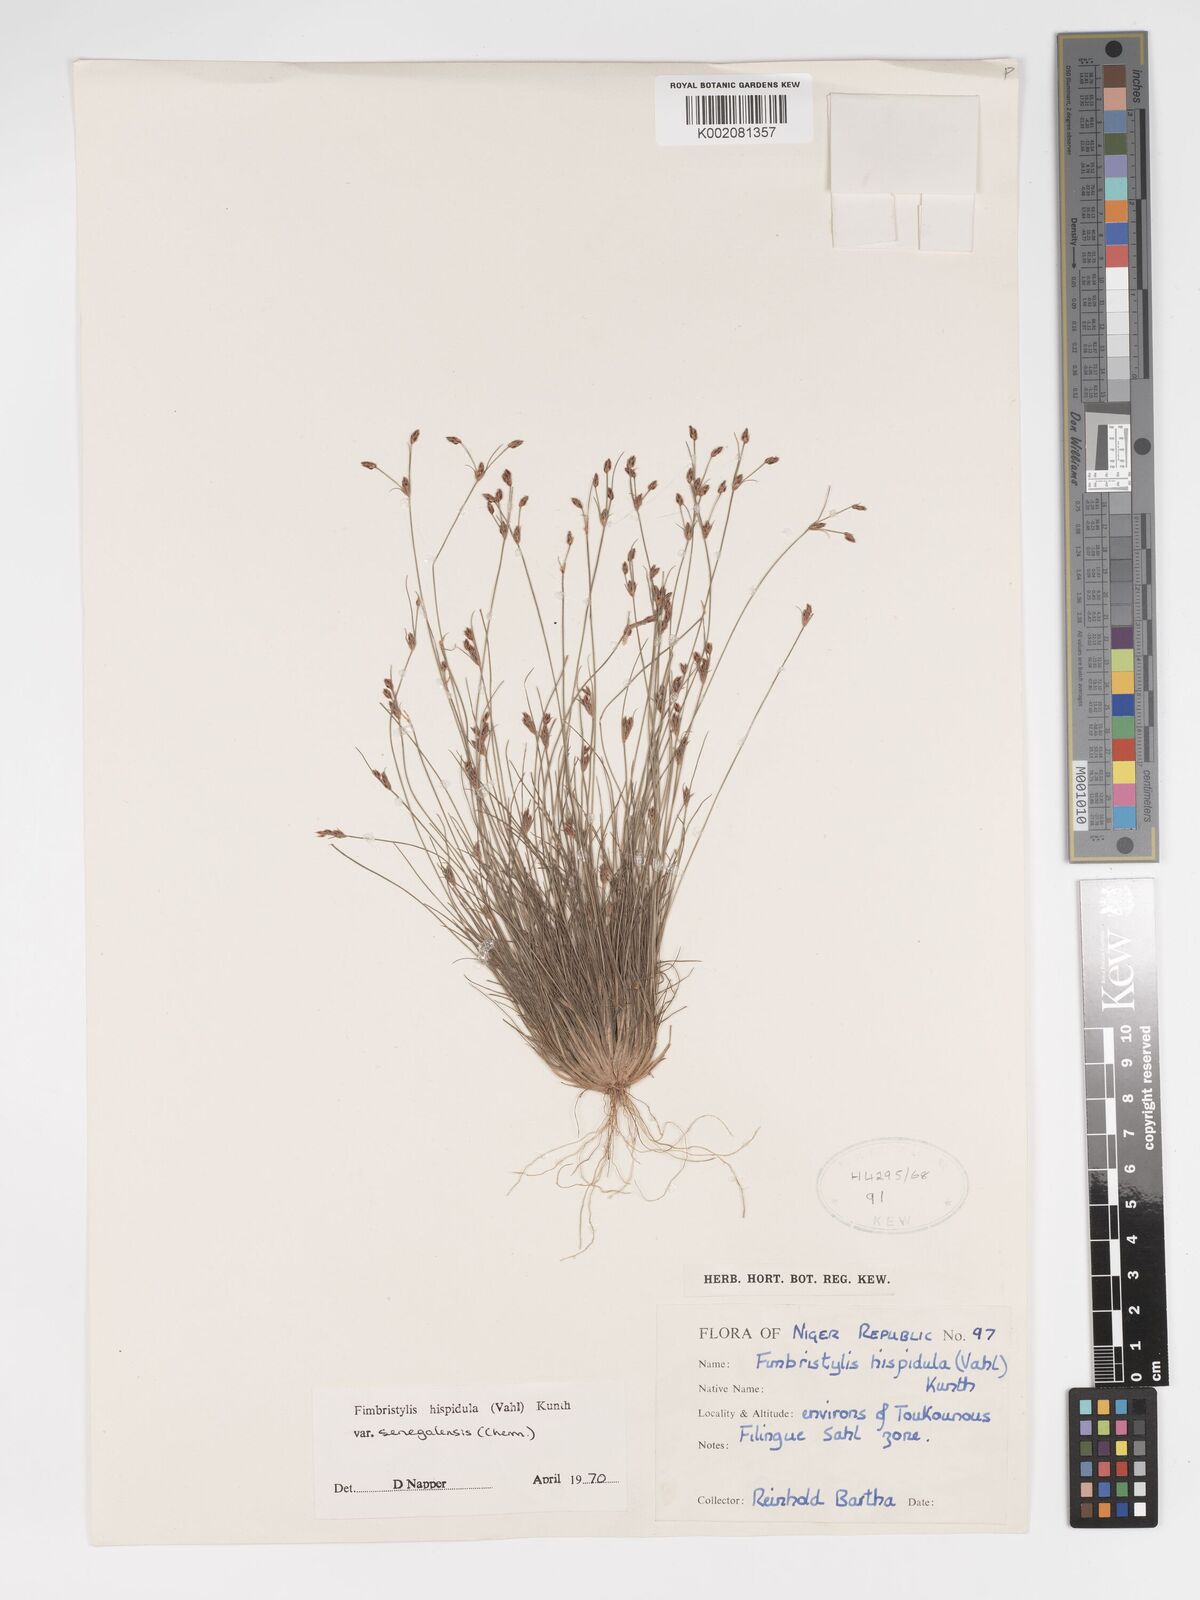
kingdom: Plantae
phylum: Tracheophyta
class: Liliopsida
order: Poales
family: Cyperaceae
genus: Bulbostylis
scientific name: Bulbostylis hispidula
